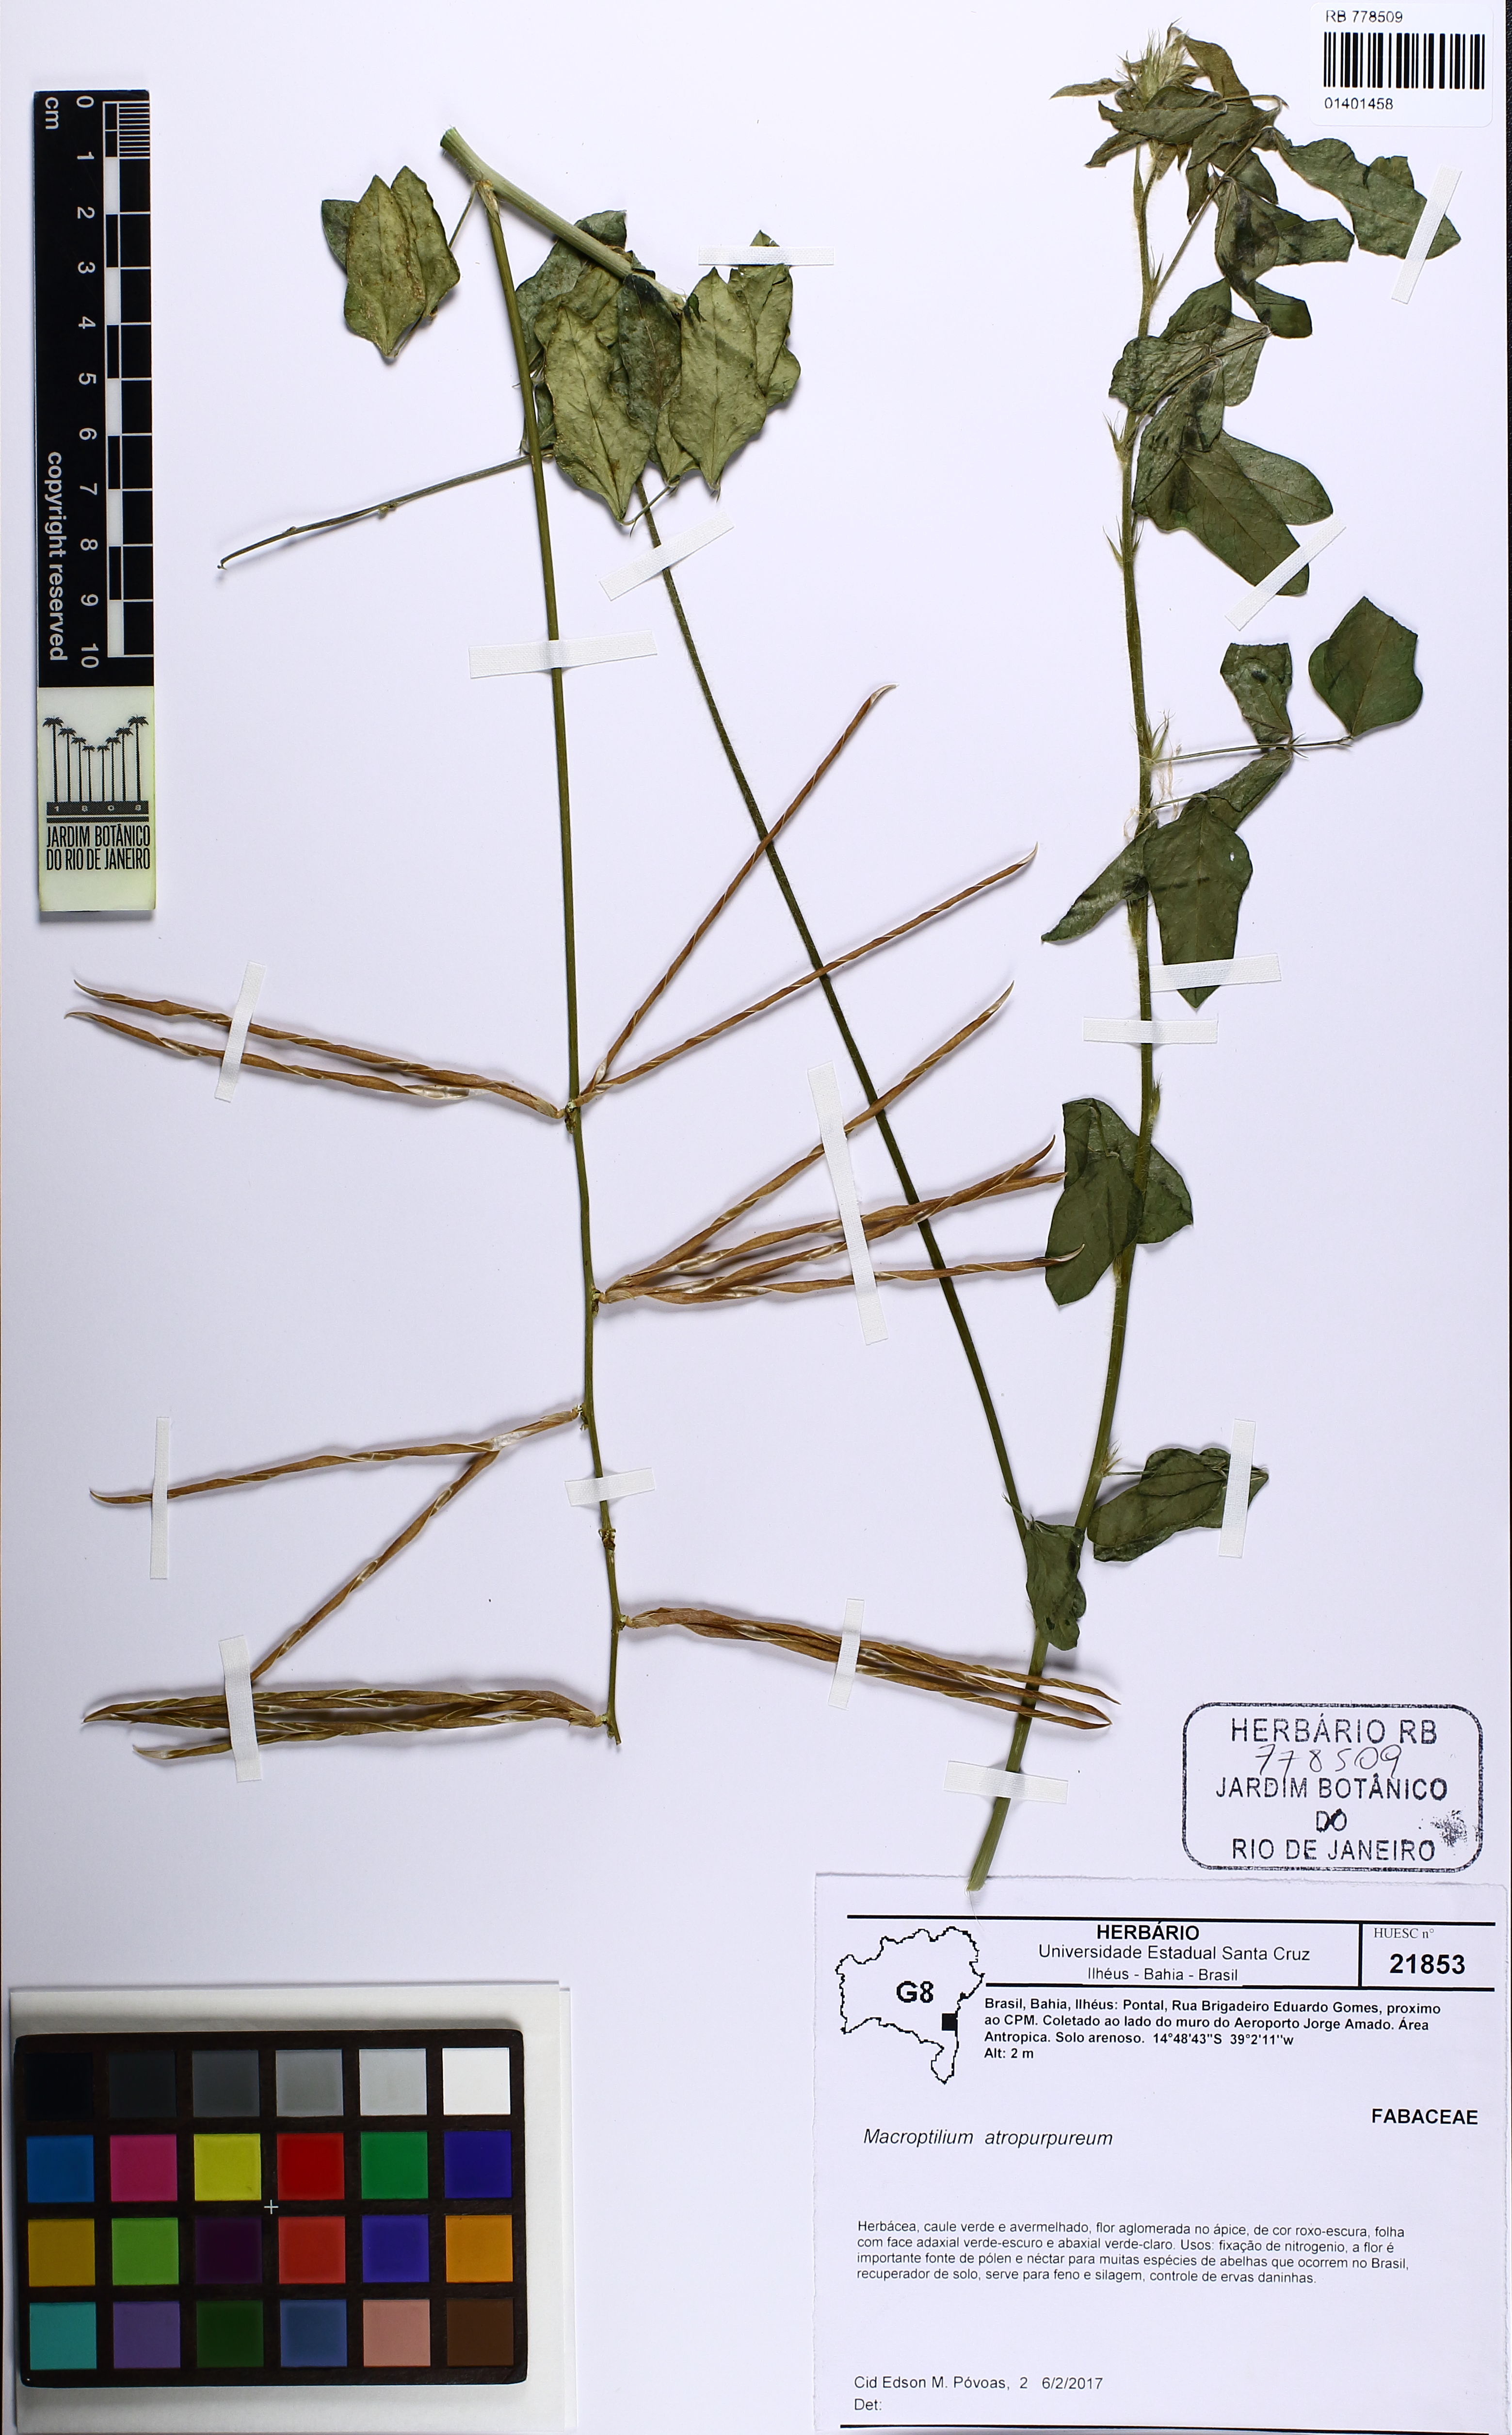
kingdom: Plantae
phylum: Tracheophyta
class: Magnoliopsida
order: Fabales
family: Fabaceae
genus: Macroptilium
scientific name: Macroptilium lathyroides
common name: Wild bushbean
